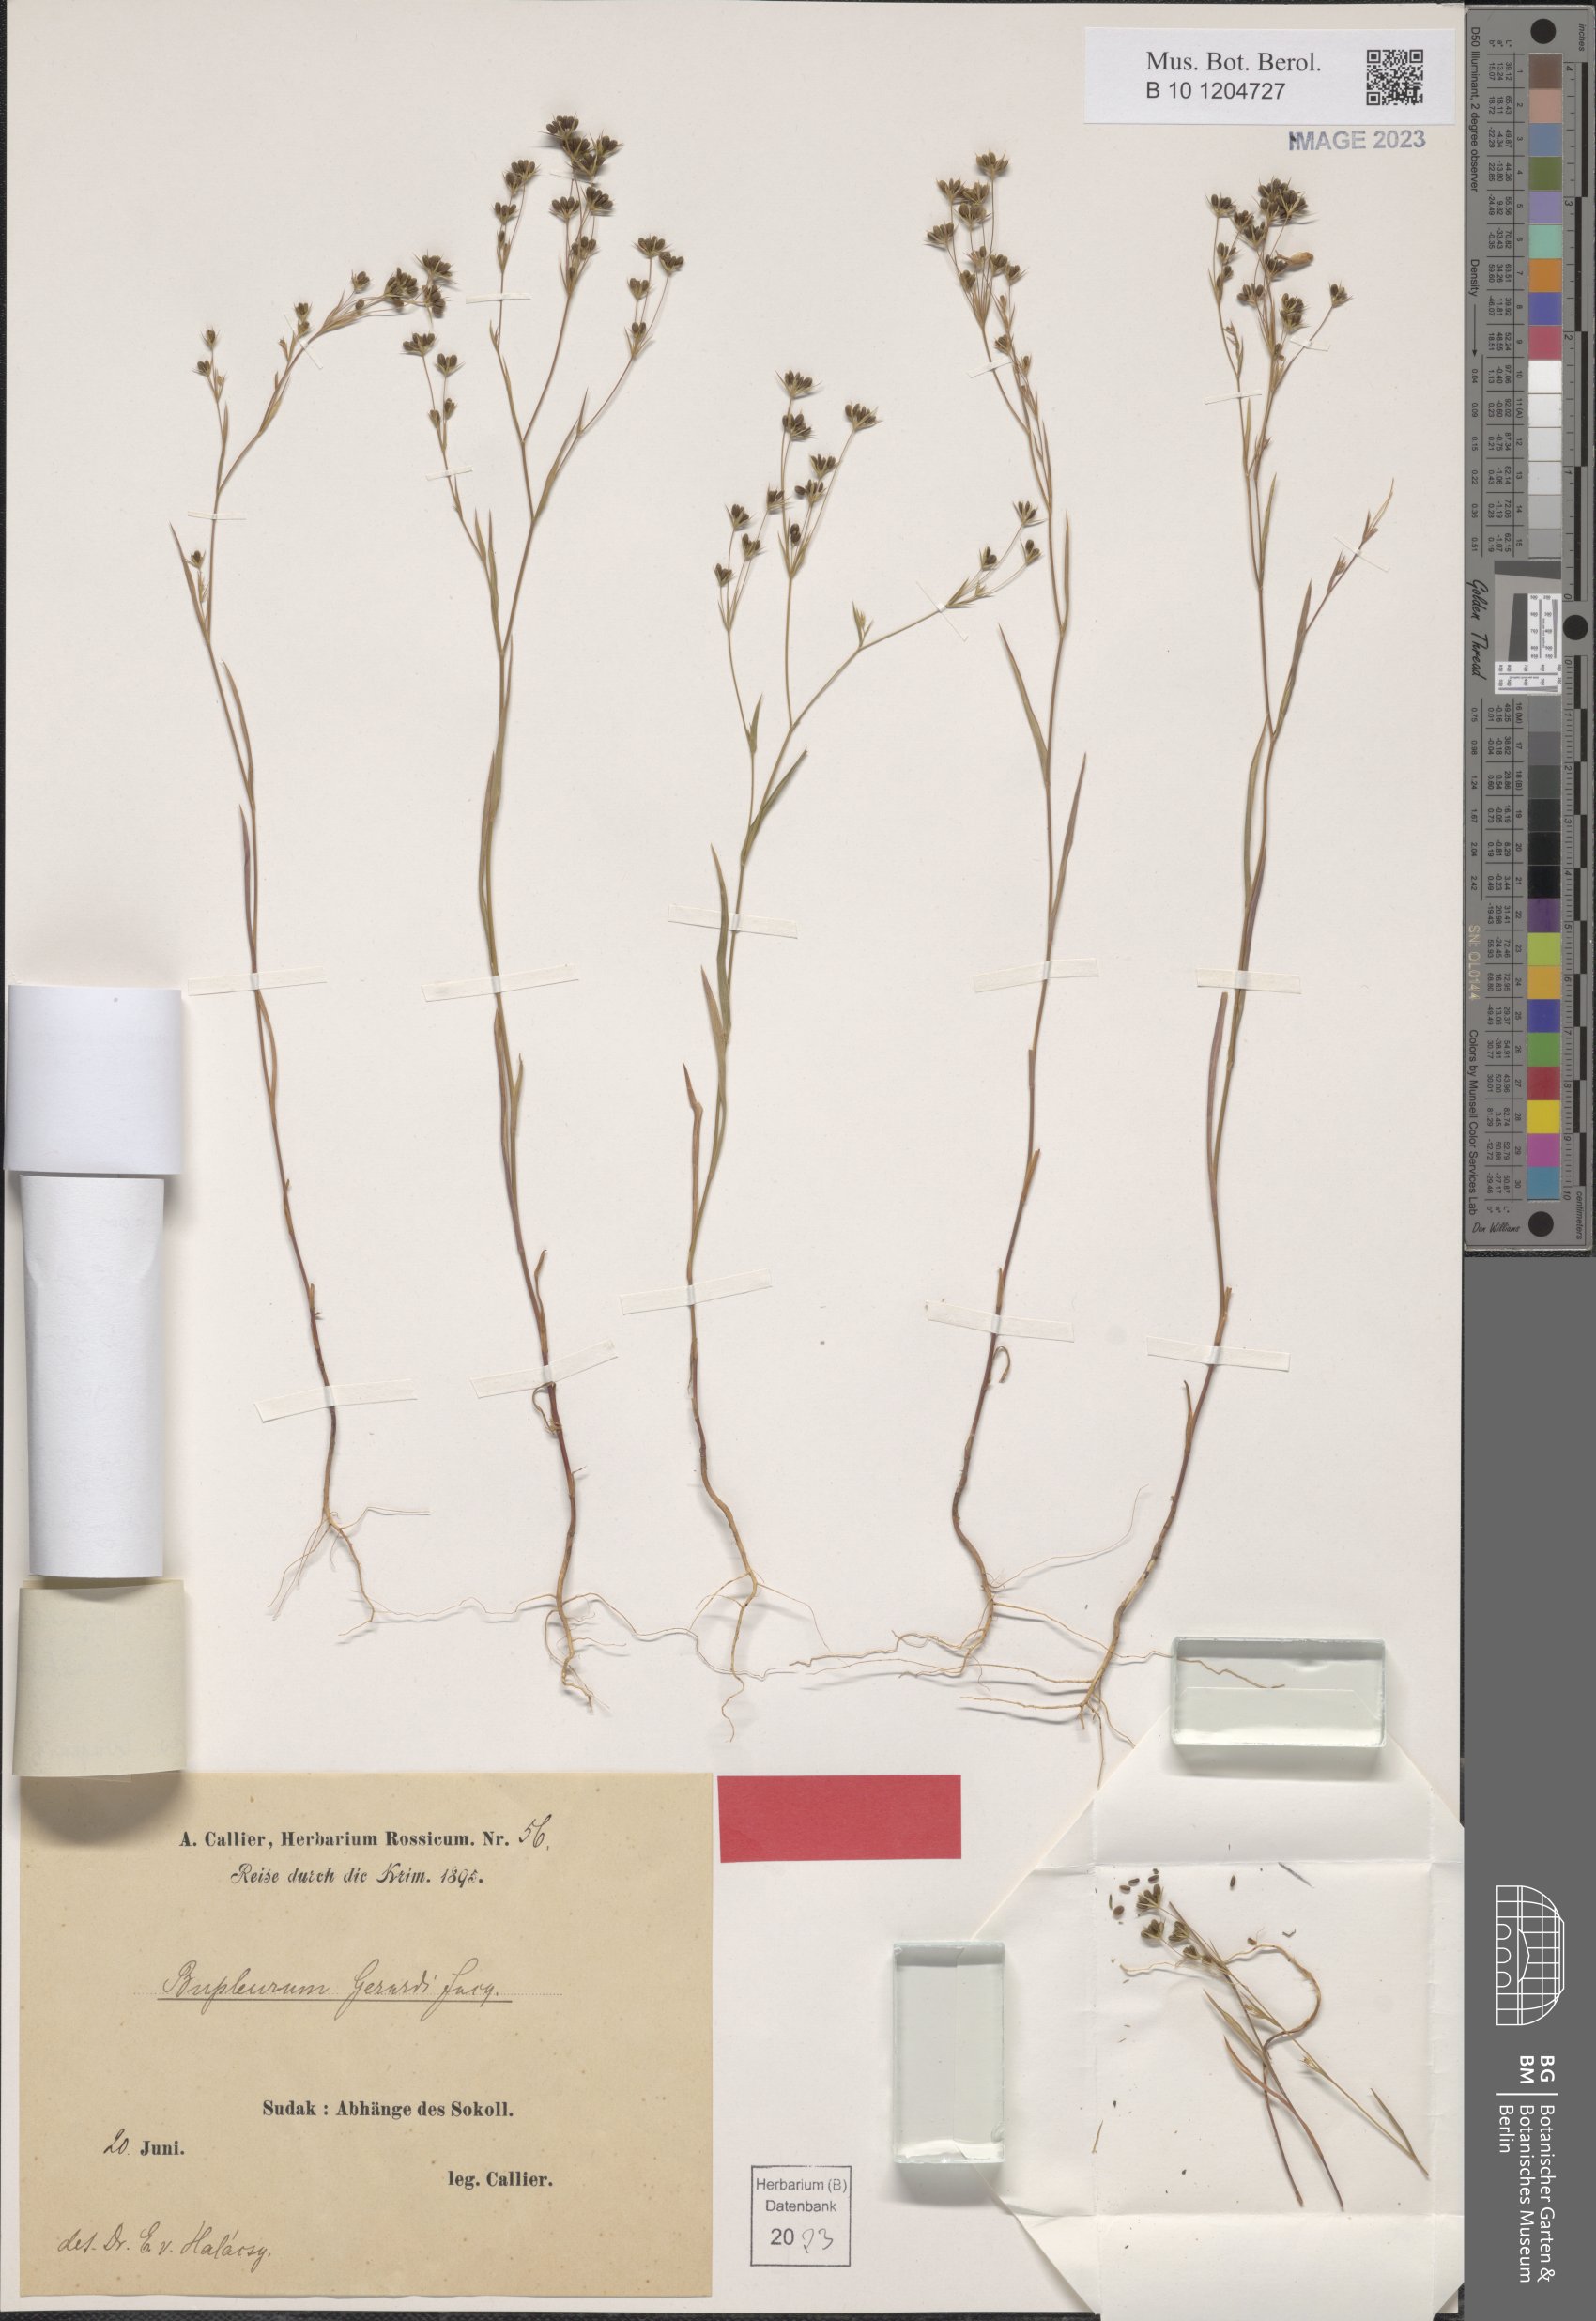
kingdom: Plantae
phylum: Tracheophyta
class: Magnoliopsida
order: Apiales
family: Apiaceae
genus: Bupleurum
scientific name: Bupleurum gerardi
